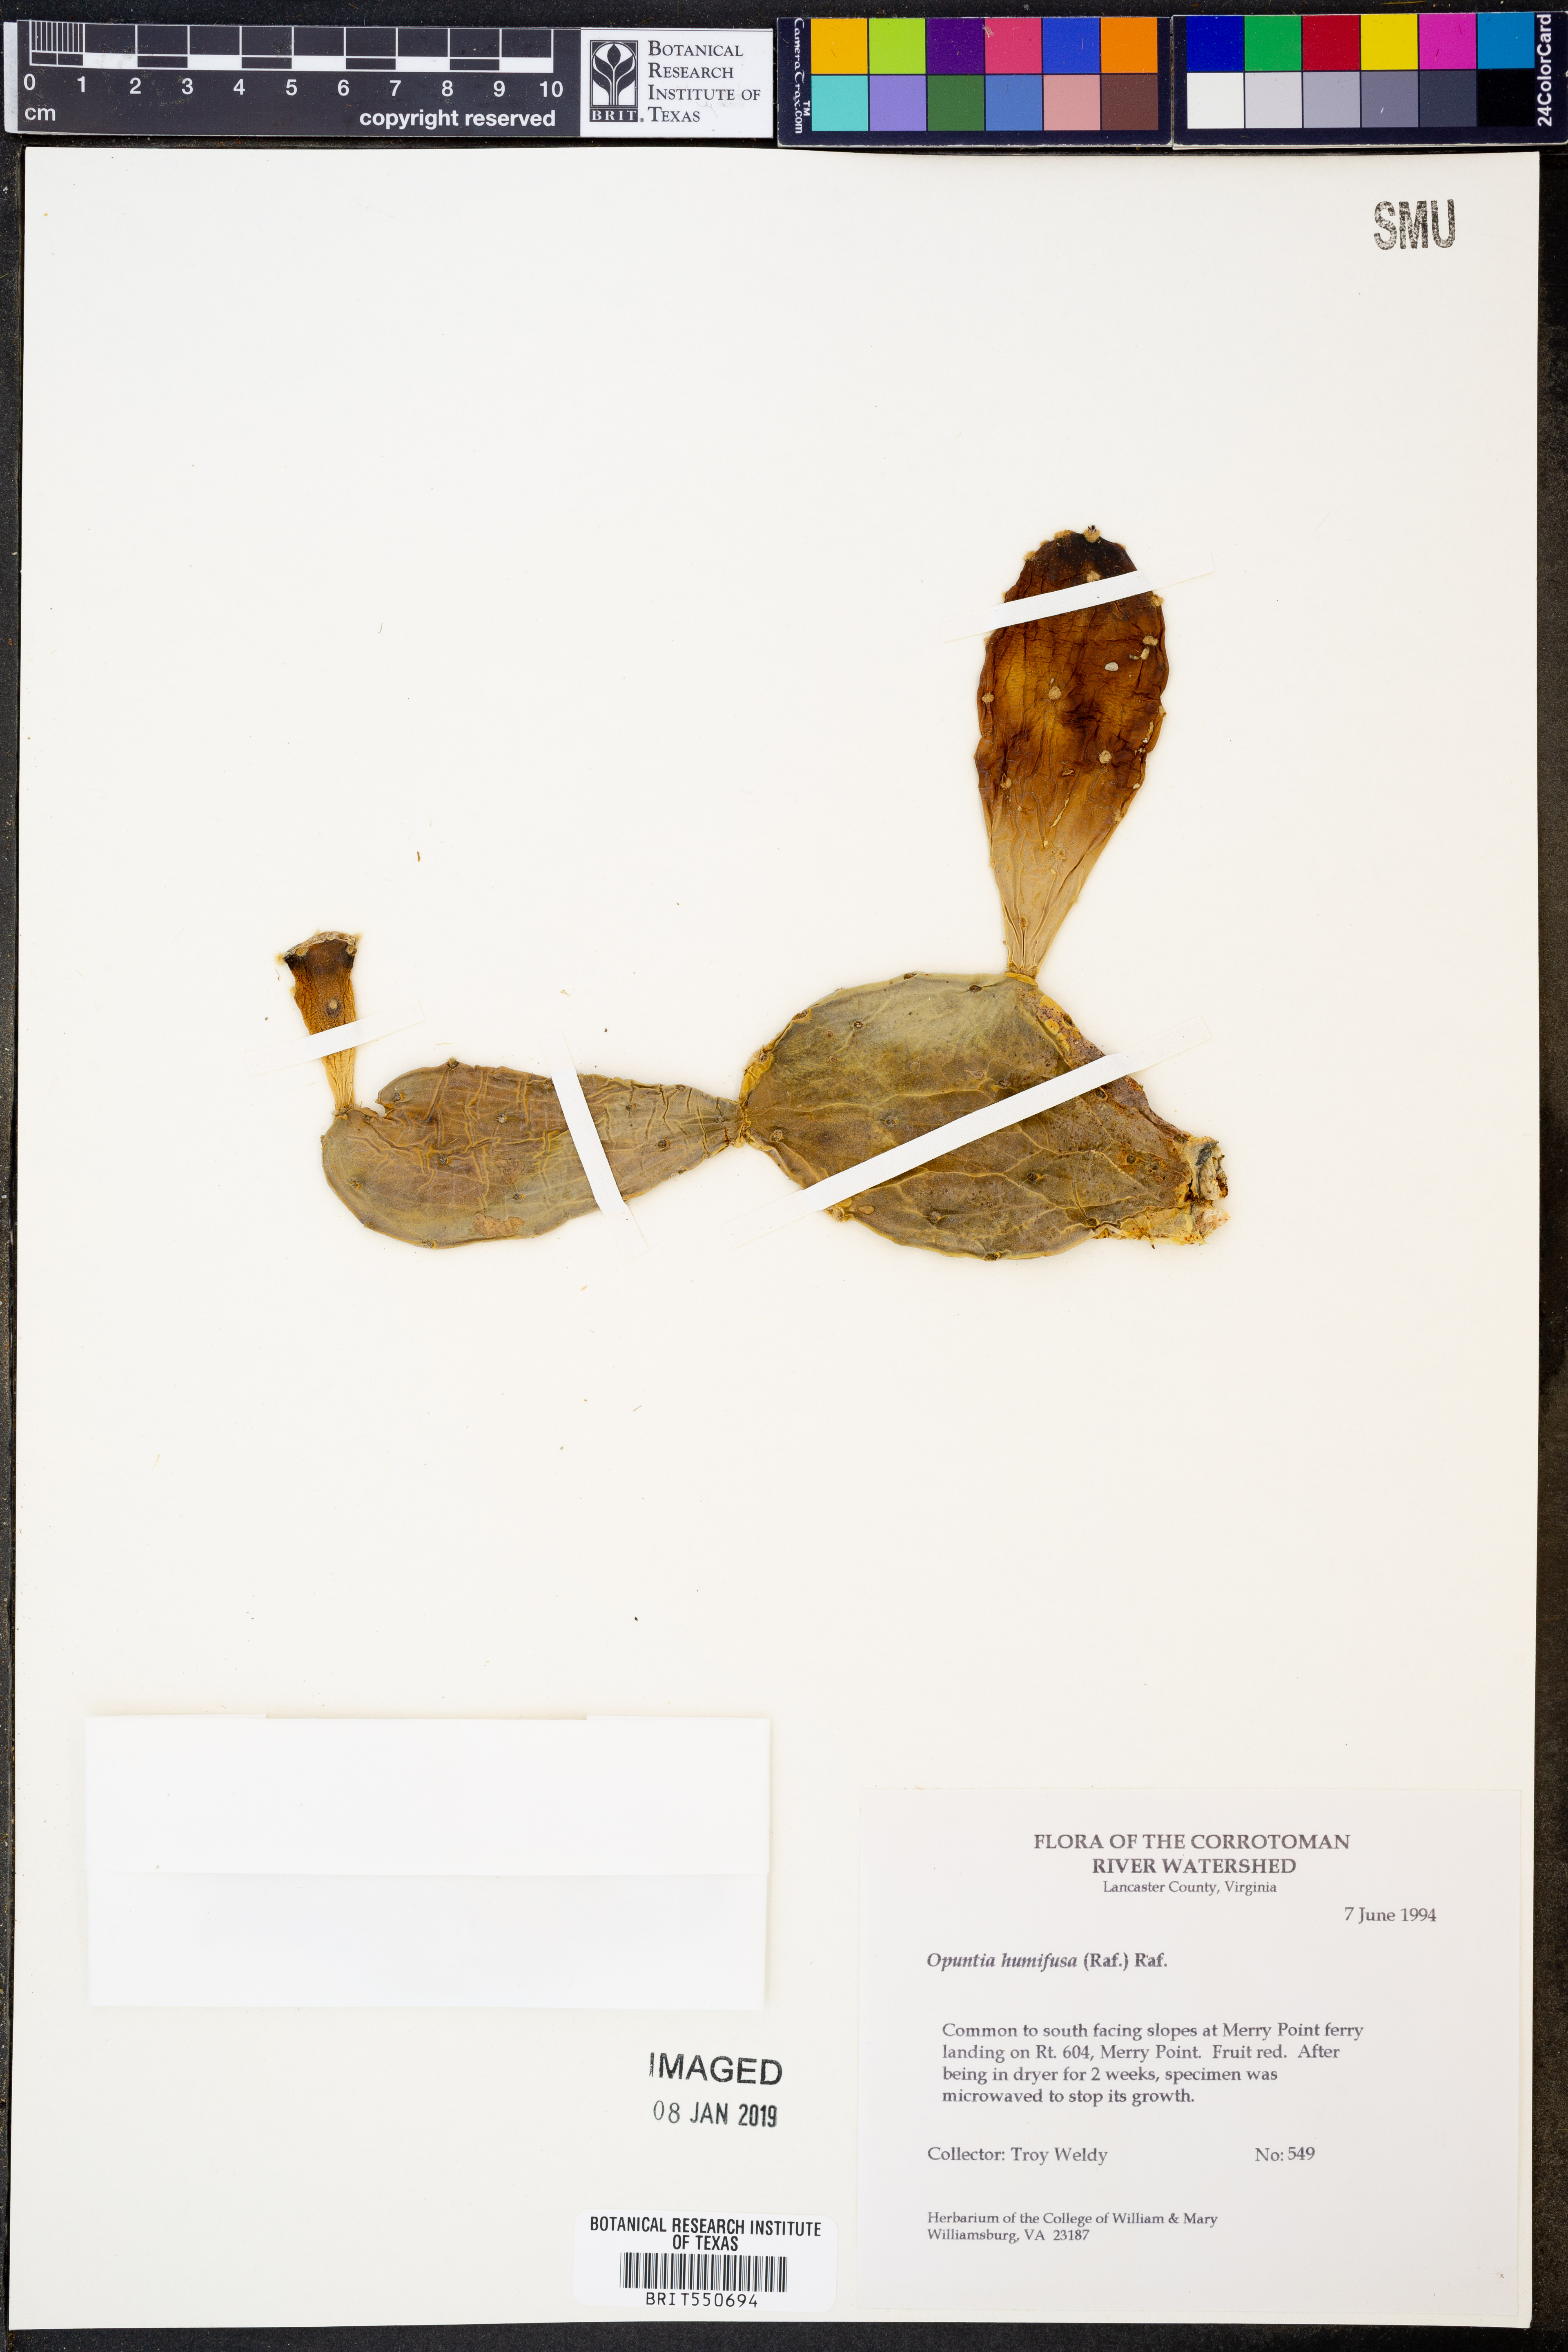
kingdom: Plantae
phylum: Tracheophyta
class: Magnoliopsida
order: Caryophyllales
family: Cactaceae
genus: Opuntia
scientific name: Opuntia humifusa
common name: Eastern prickly-pear
